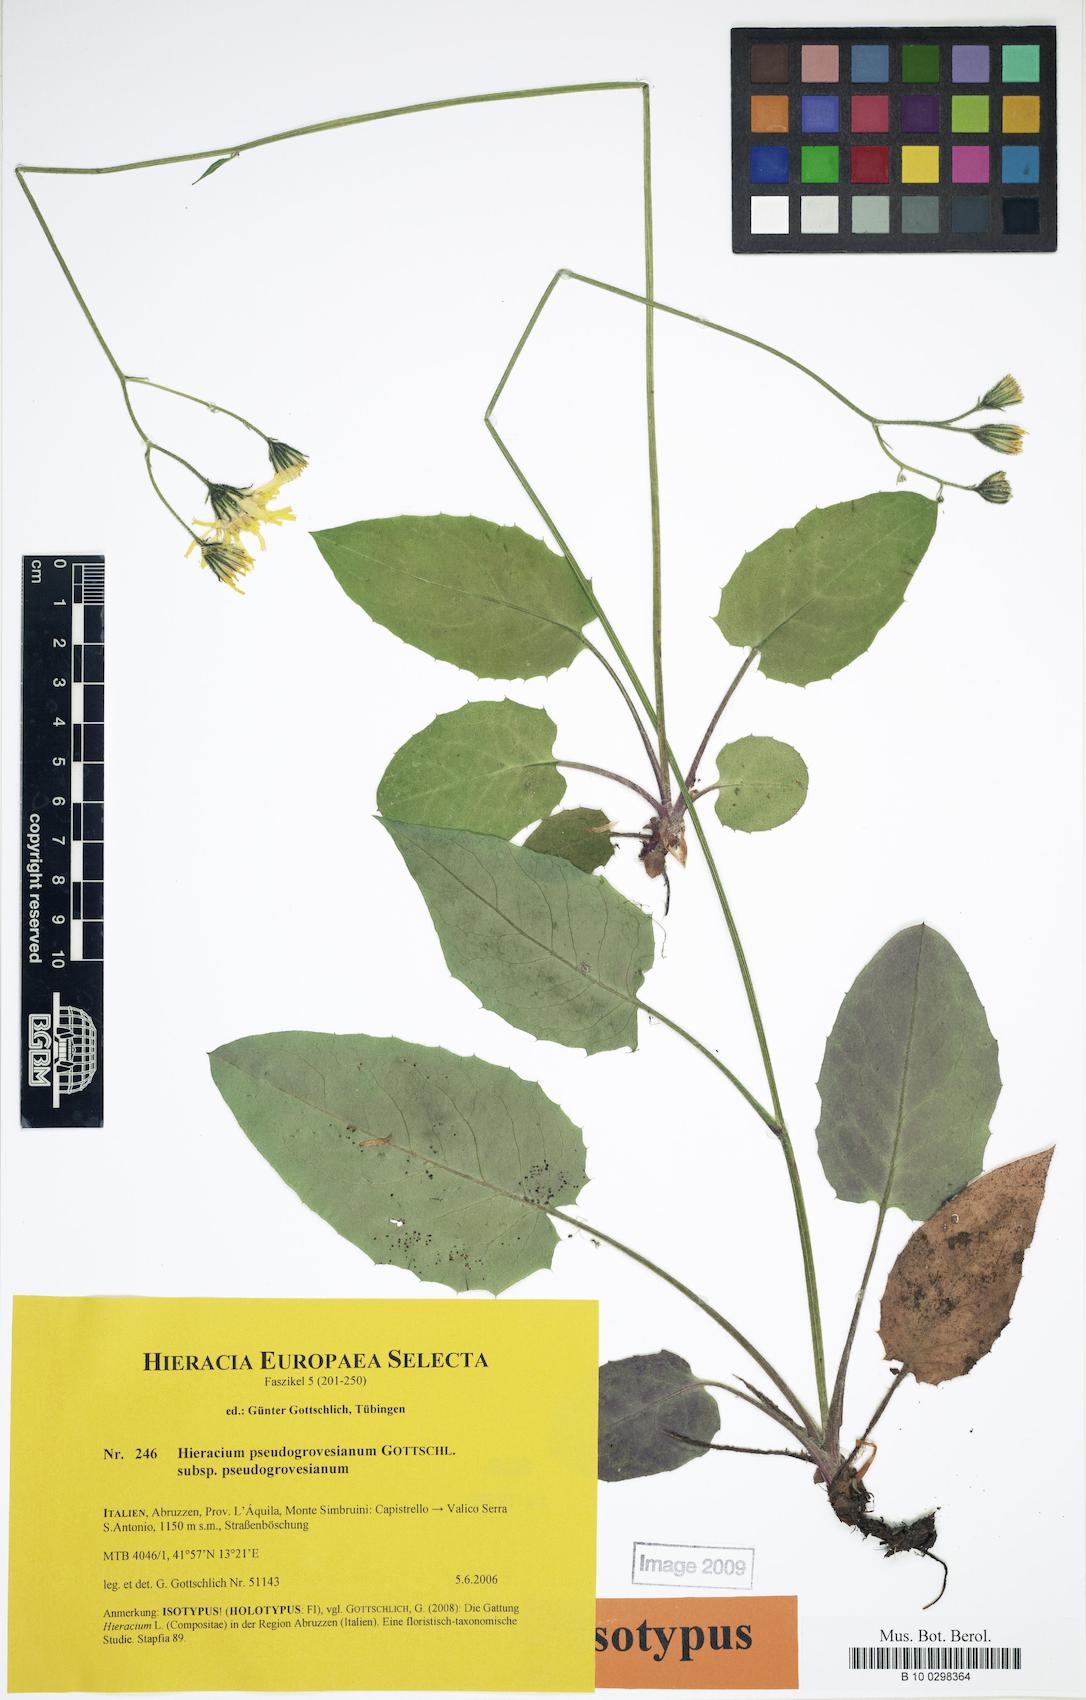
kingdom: Plantae
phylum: Tracheophyta
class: Magnoliopsida
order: Asterales
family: Asteraceae
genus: Hieracium
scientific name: Hieracium pseudogrovesianum
